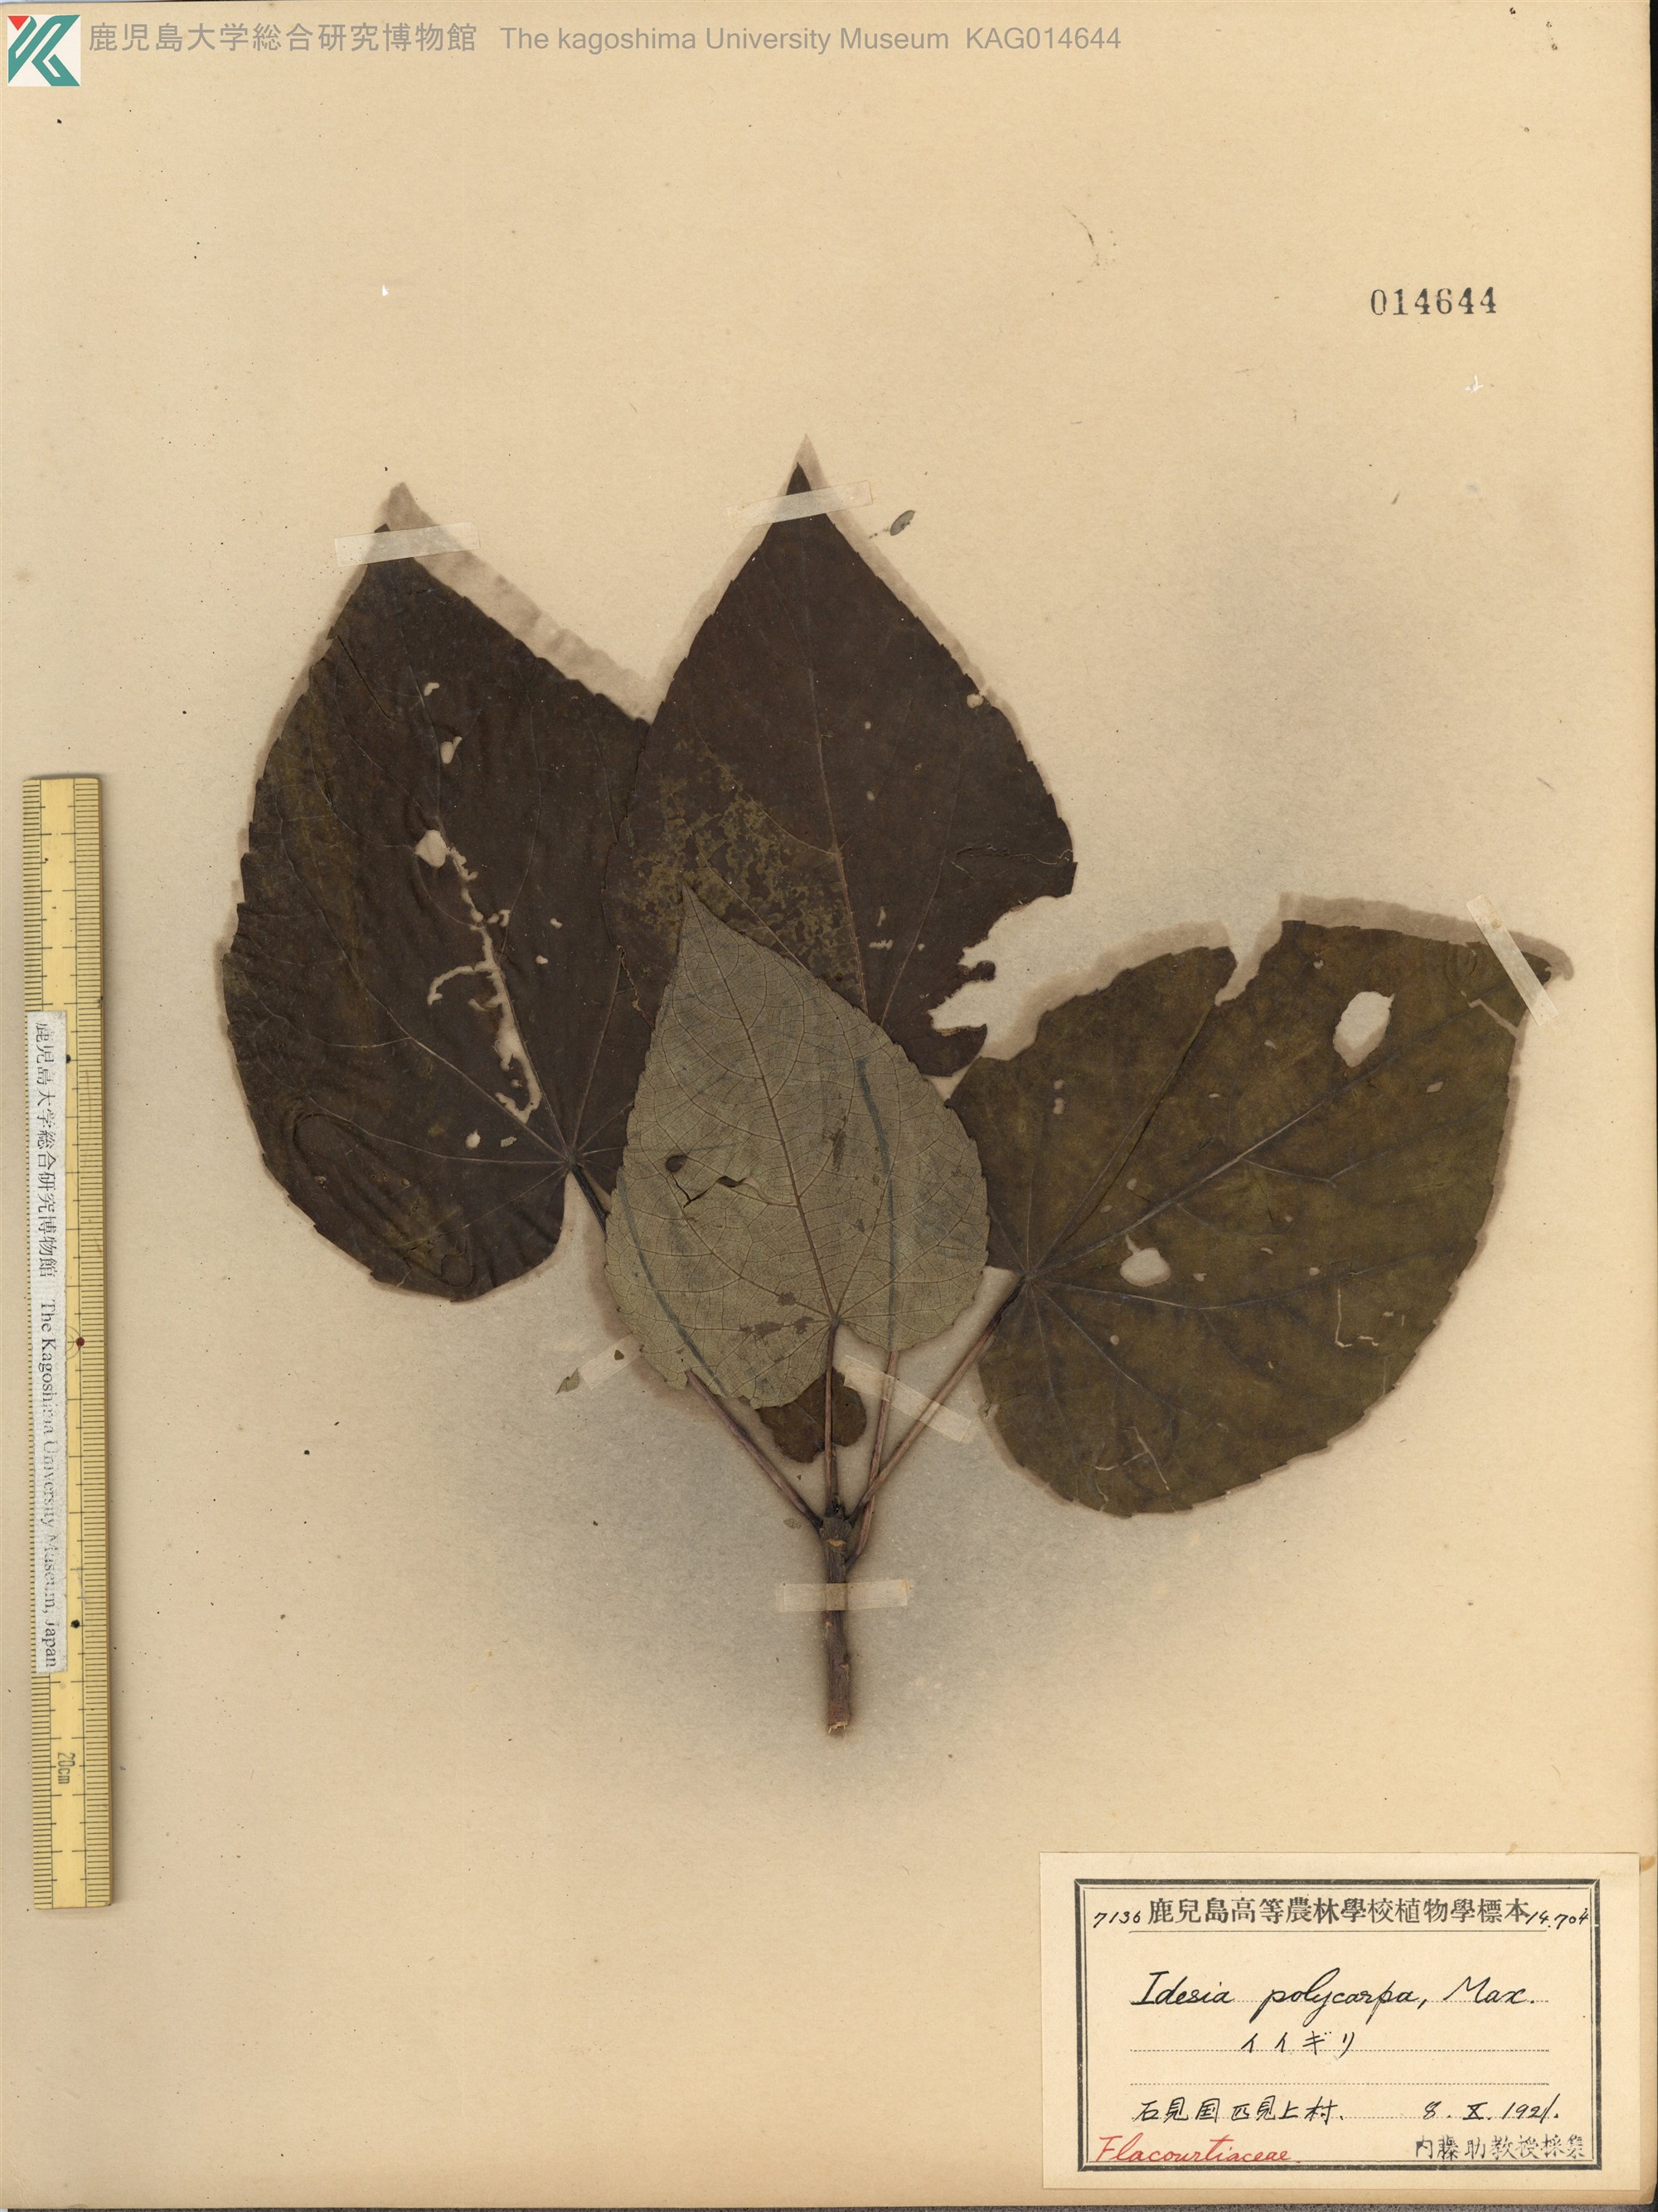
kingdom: Plantae
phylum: Tracheophyta
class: Magnoliopsida
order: Malpighiales
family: Salicaceae
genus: Idesia
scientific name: Idesia polycarpa
